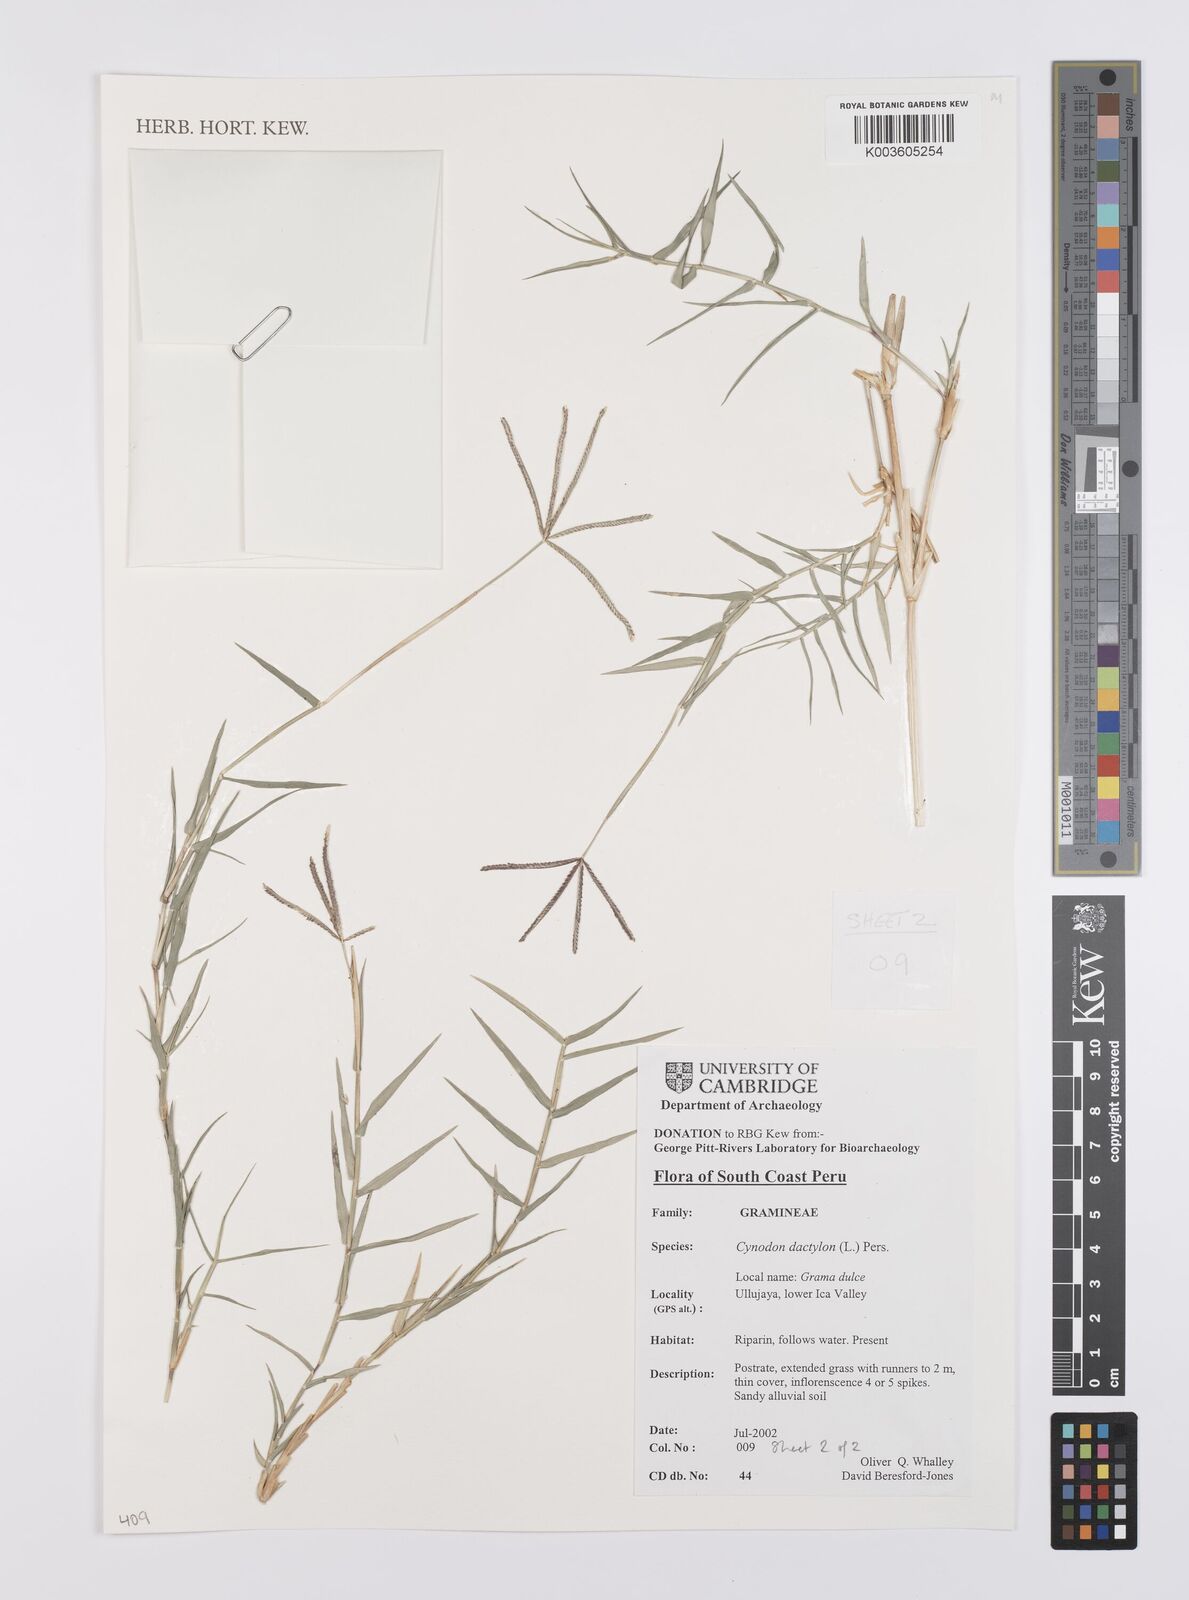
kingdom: Plantae
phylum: Tracheophyta
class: Liliopsida
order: Poales
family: Poaceae
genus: Cynodon
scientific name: Cynodon dactylon
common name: Bermuda grass
